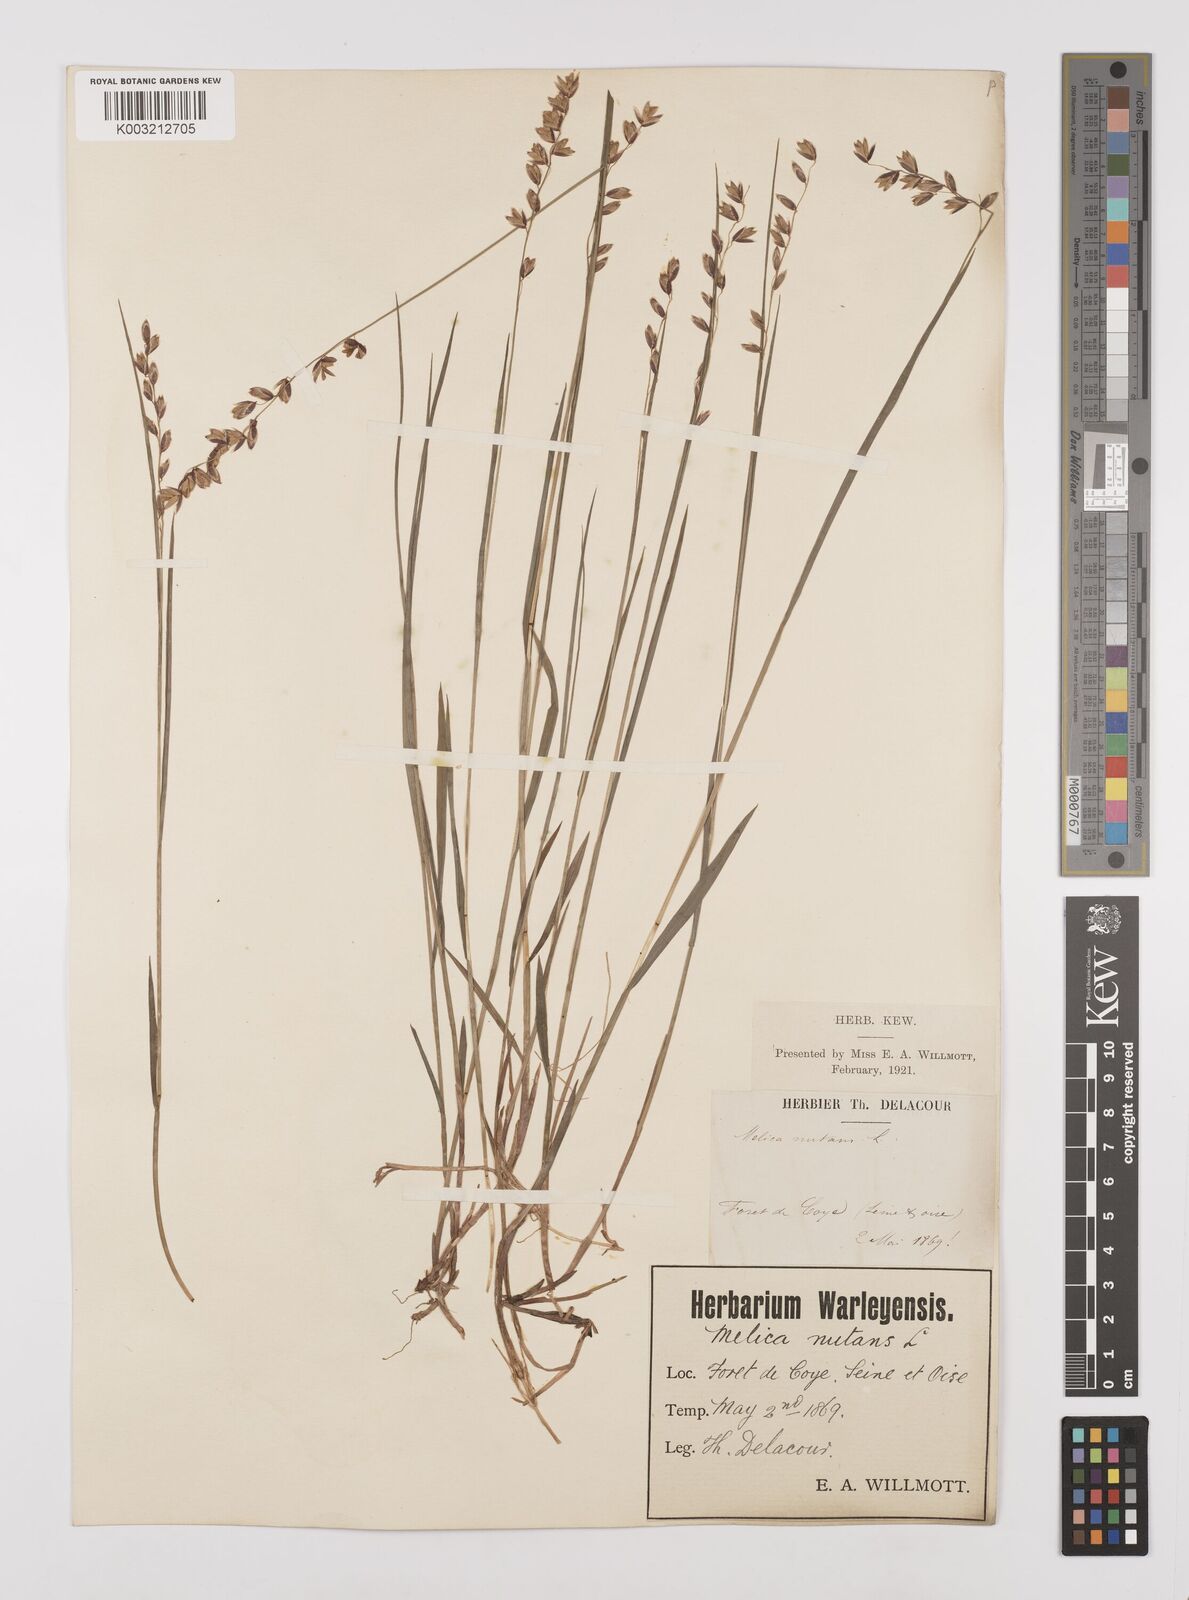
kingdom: Plantae
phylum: Tracheophyta
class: Liliopsida
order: Poales
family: Poaceae
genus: Melica
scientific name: Melica nutans
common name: Mountain melick
